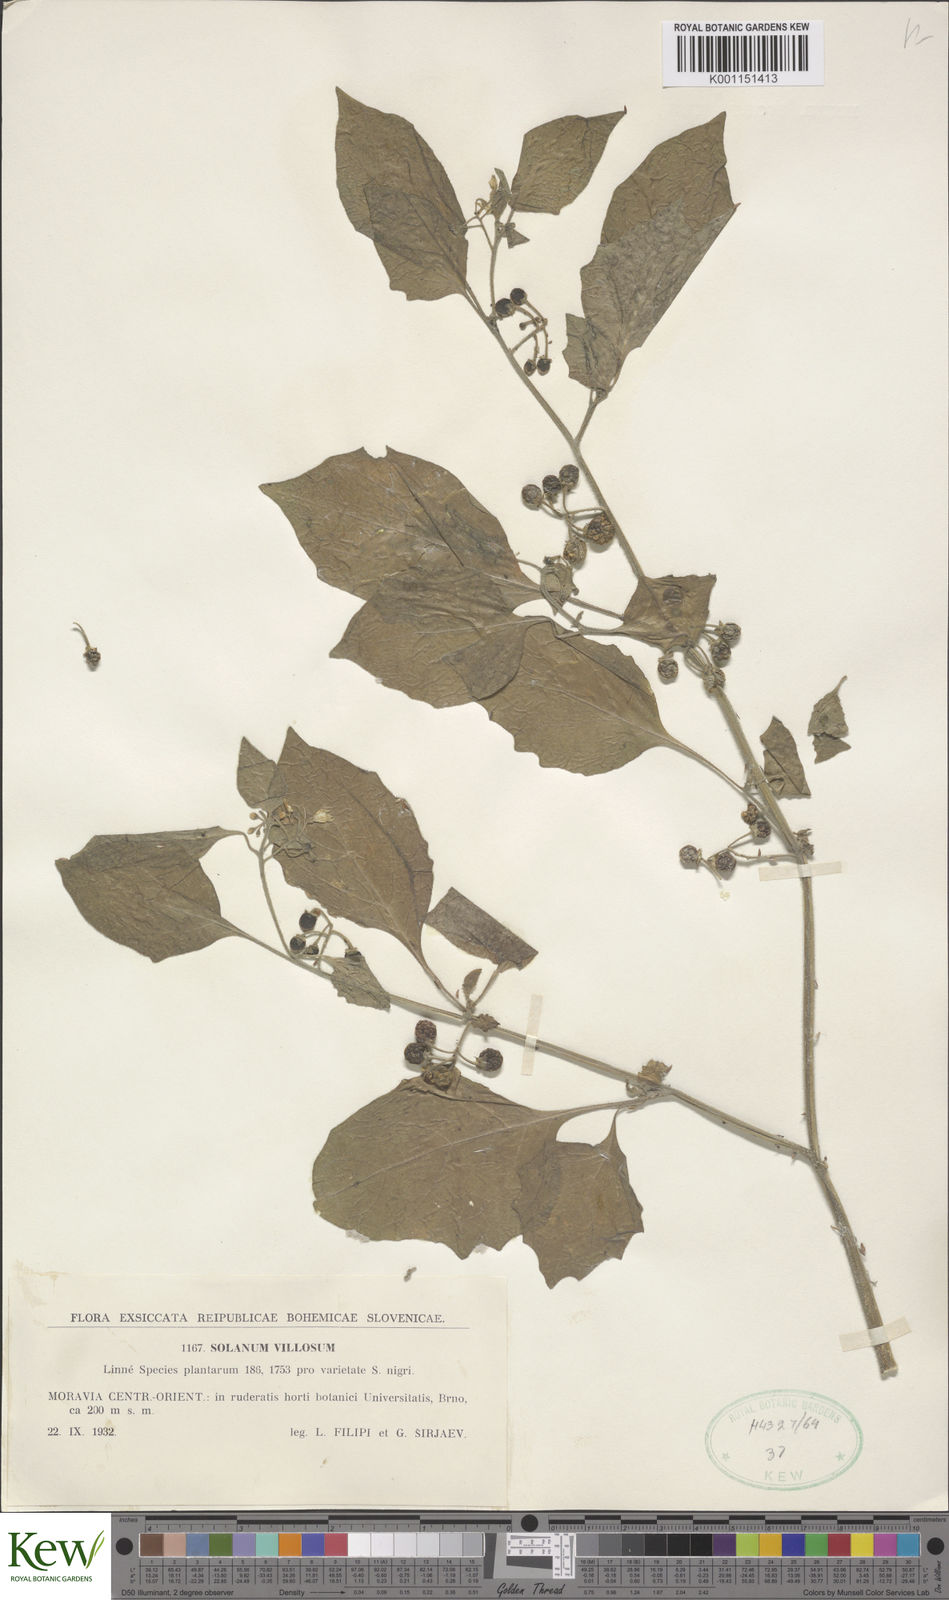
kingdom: Plantae
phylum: Tracheophyta
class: Magnoliopsida
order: Solanales
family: Solanaceae
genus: Solanum
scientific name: Solanum villosum
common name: Red nightshade
